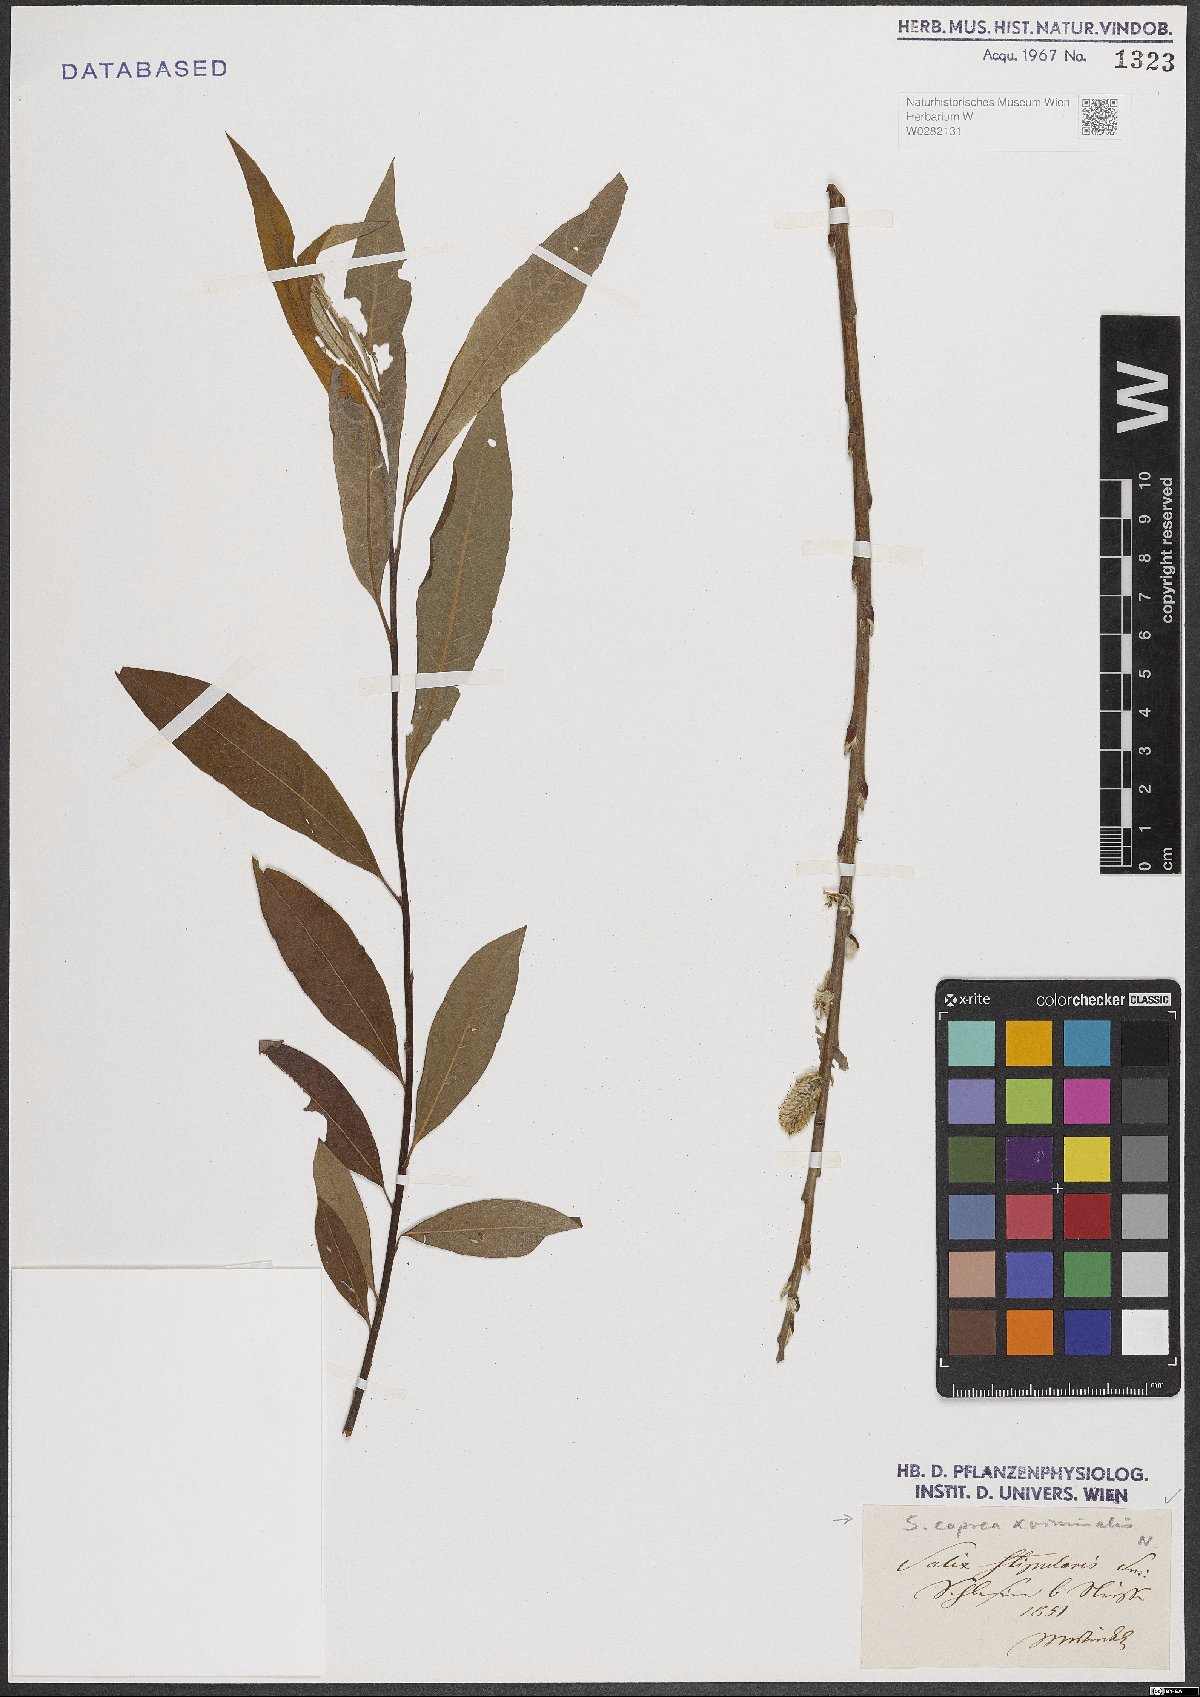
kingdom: Plantae
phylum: Tracheophyta
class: Magnoliopsida
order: Malpighiales
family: Salicaceae
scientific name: Salicaceae
